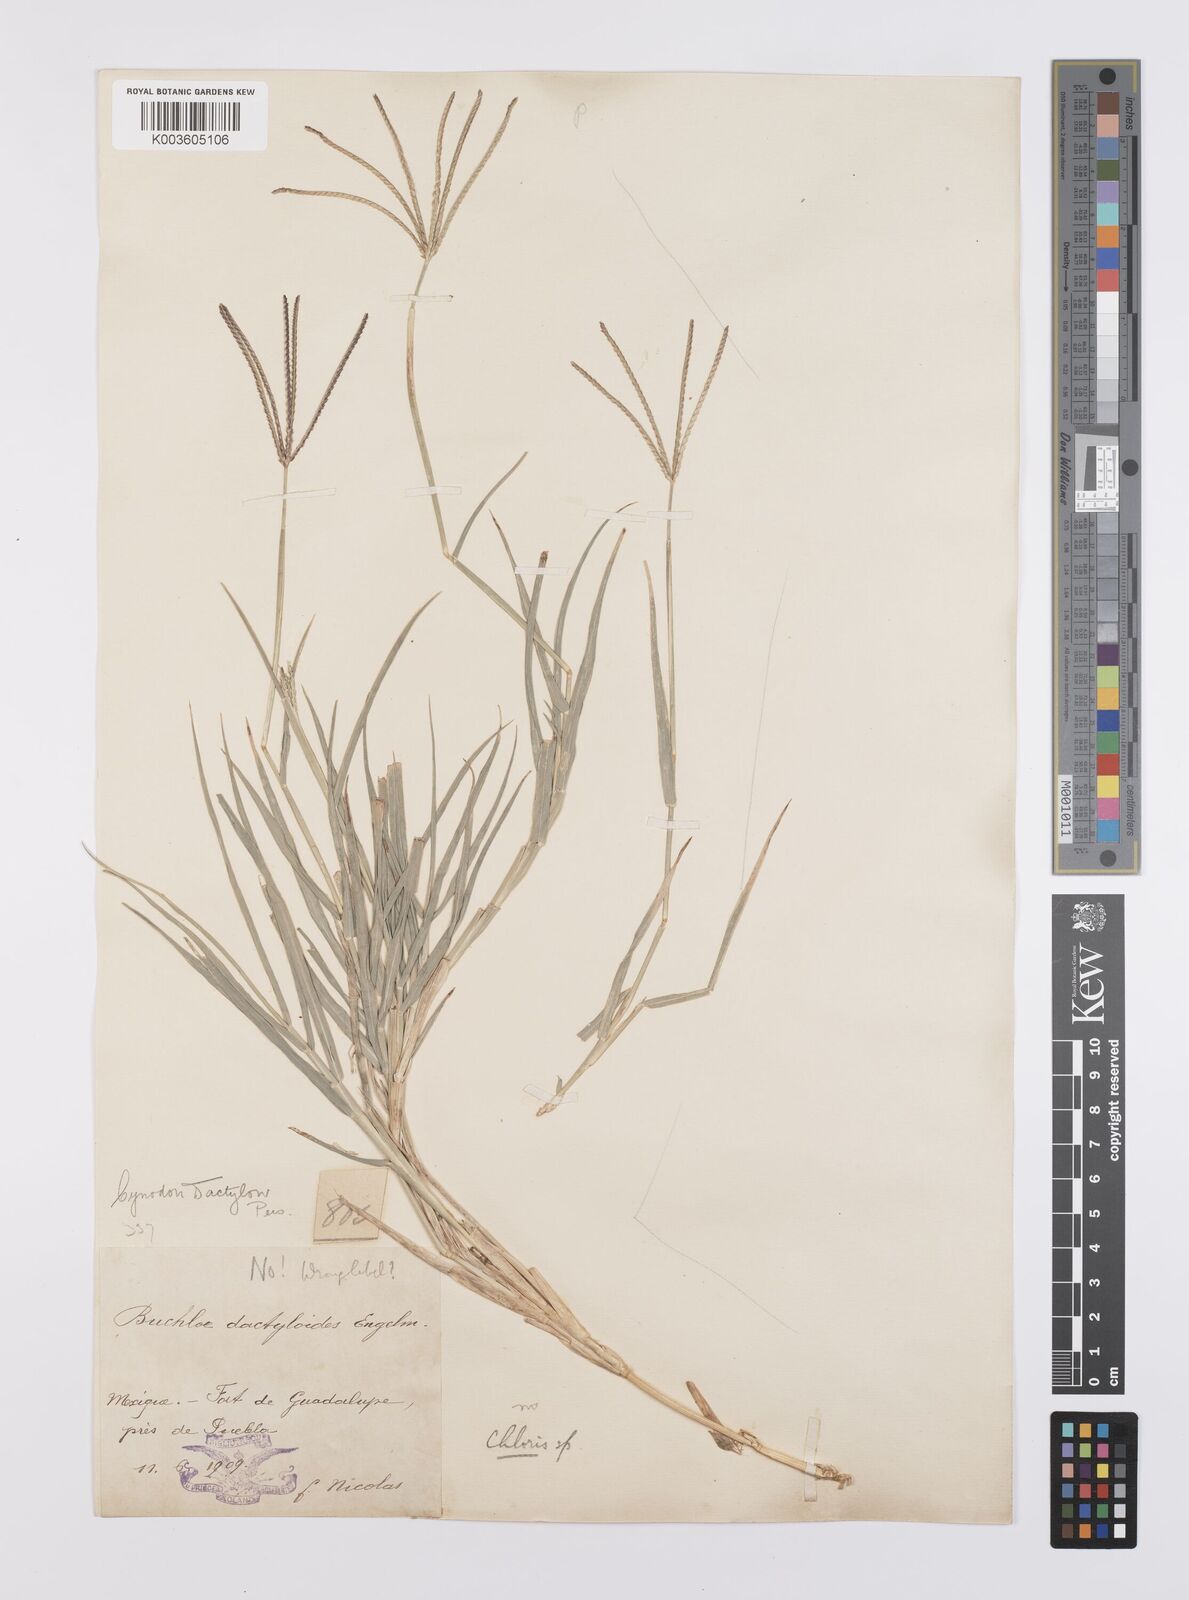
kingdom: Plantae
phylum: Tracheophyta
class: Liliopsida
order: Poales
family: Poaceae
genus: Cynodon
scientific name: Cynodon dactylon
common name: Bermuda grass
